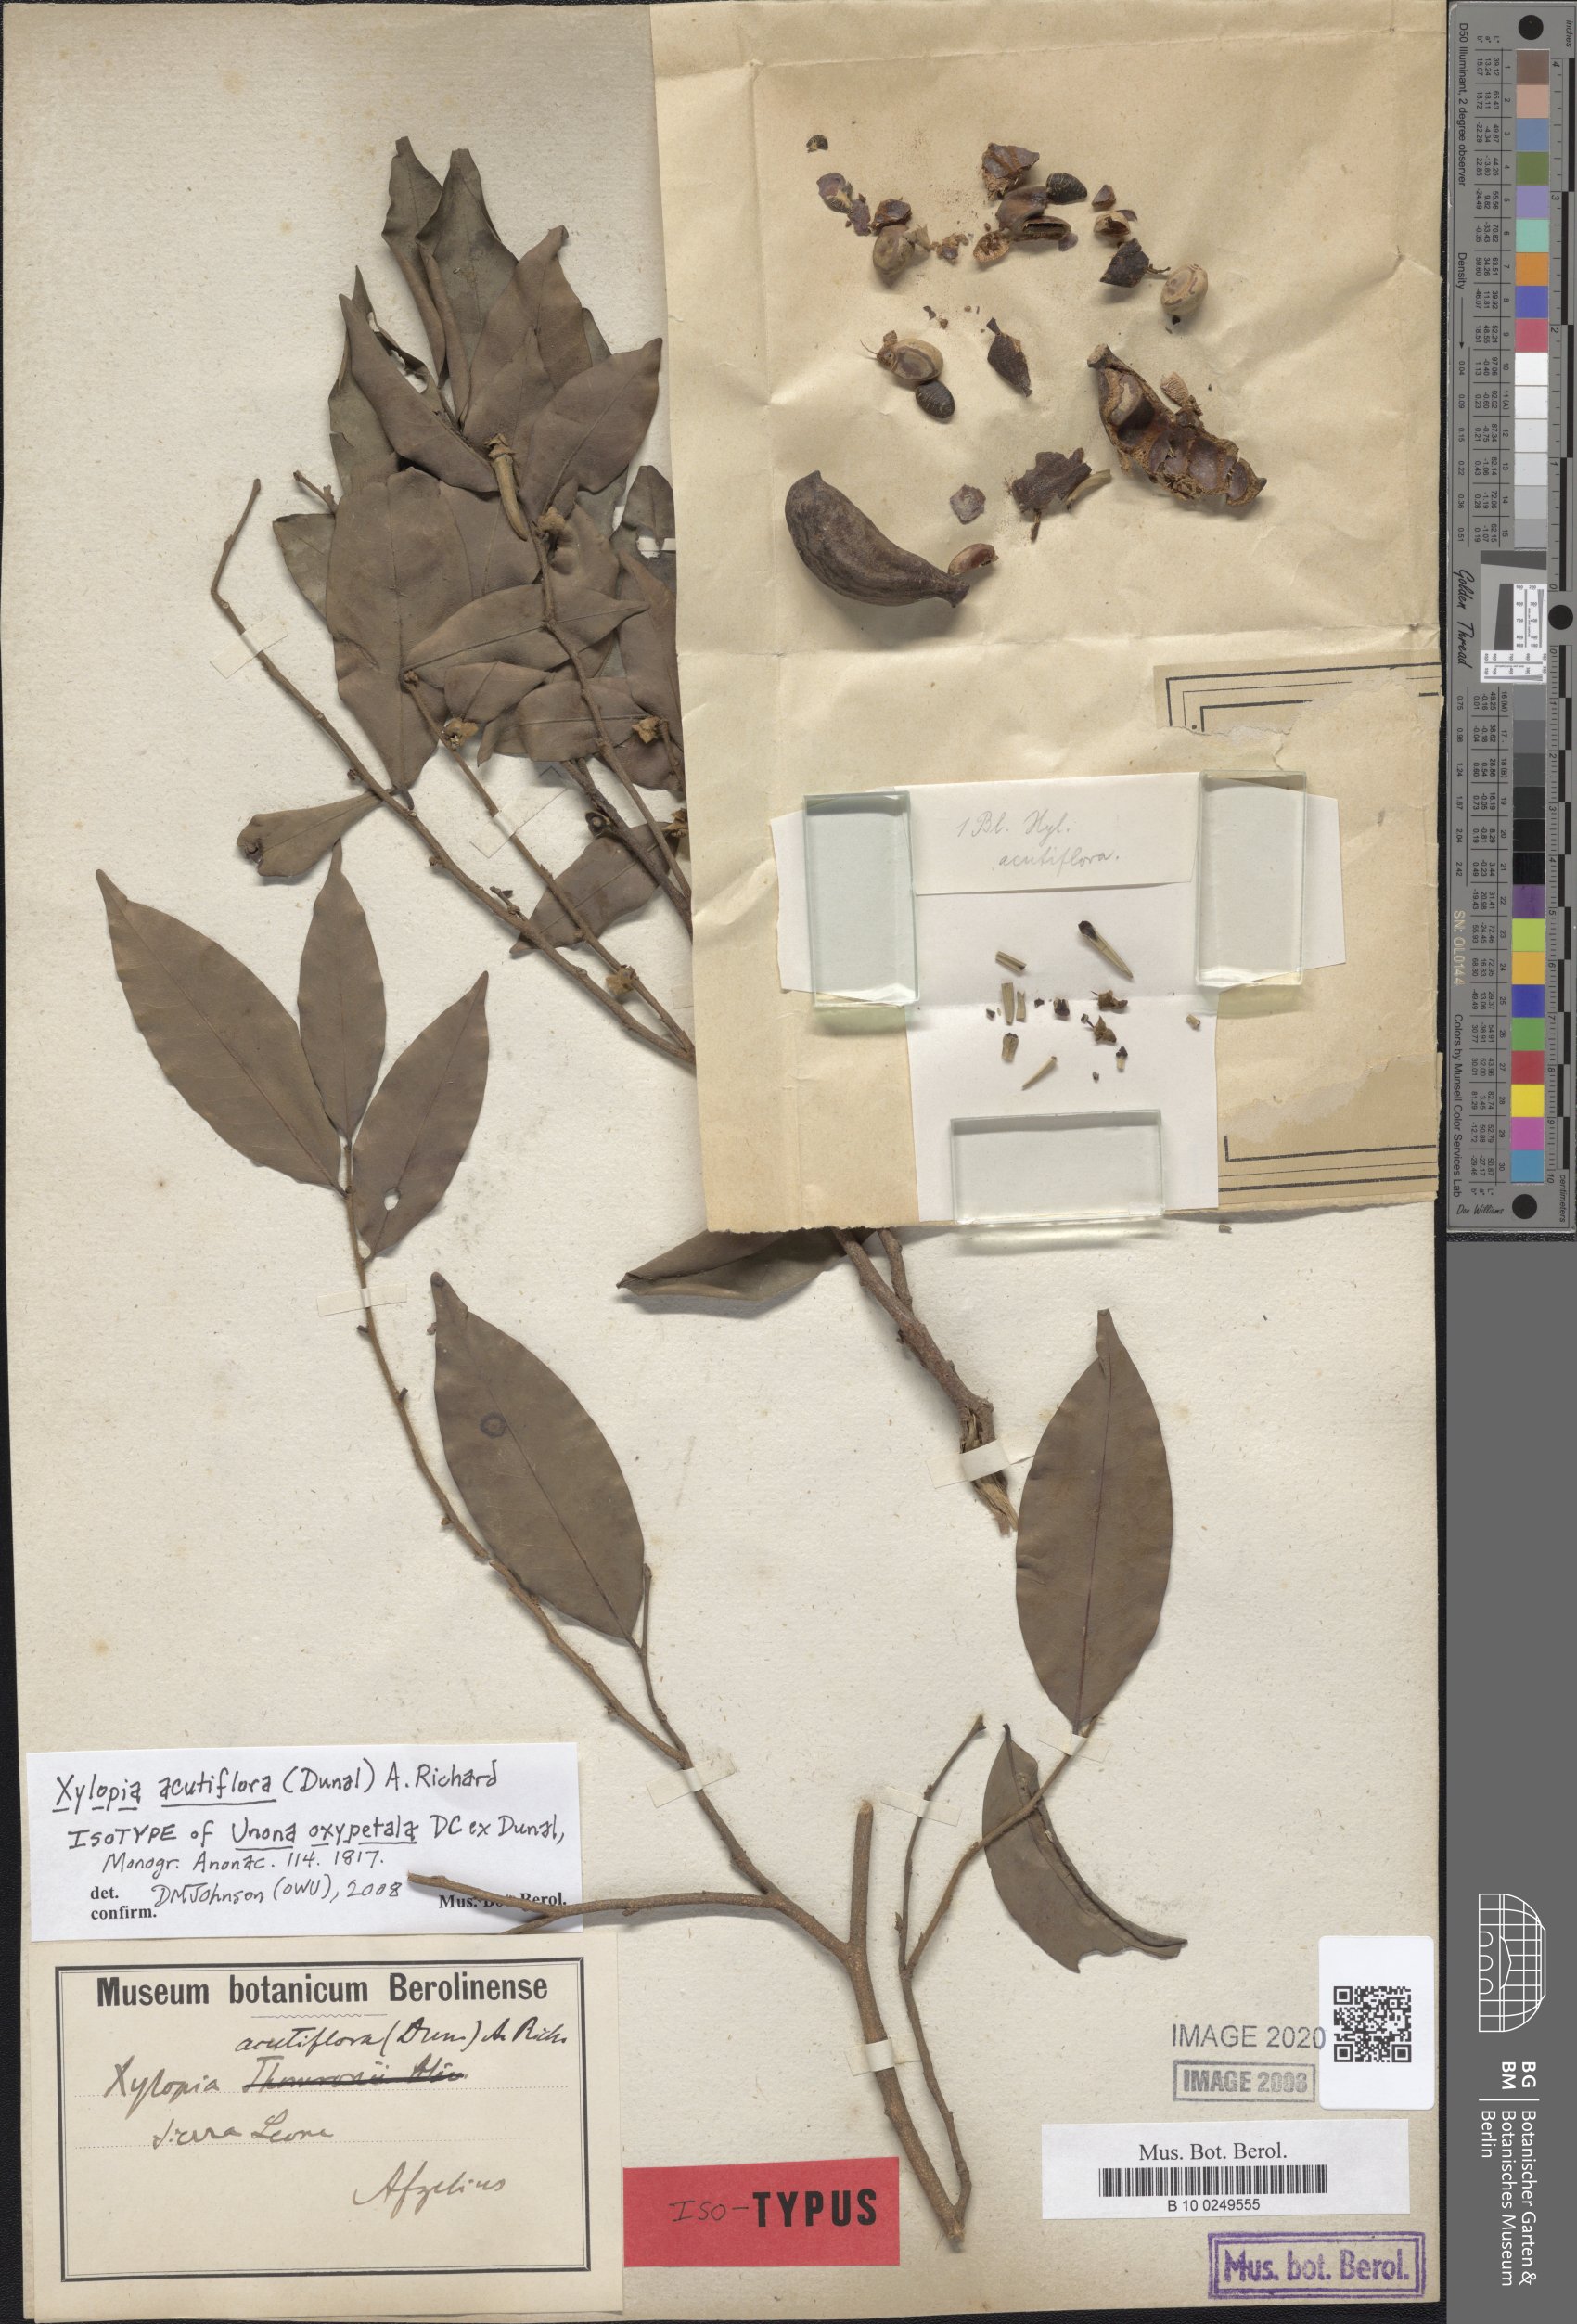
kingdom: Plantae
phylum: Tracheophyta
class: Magnoliopsida
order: Magnoliales
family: Annonaceae
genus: Xylopia
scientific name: Xylopia acutiflora
